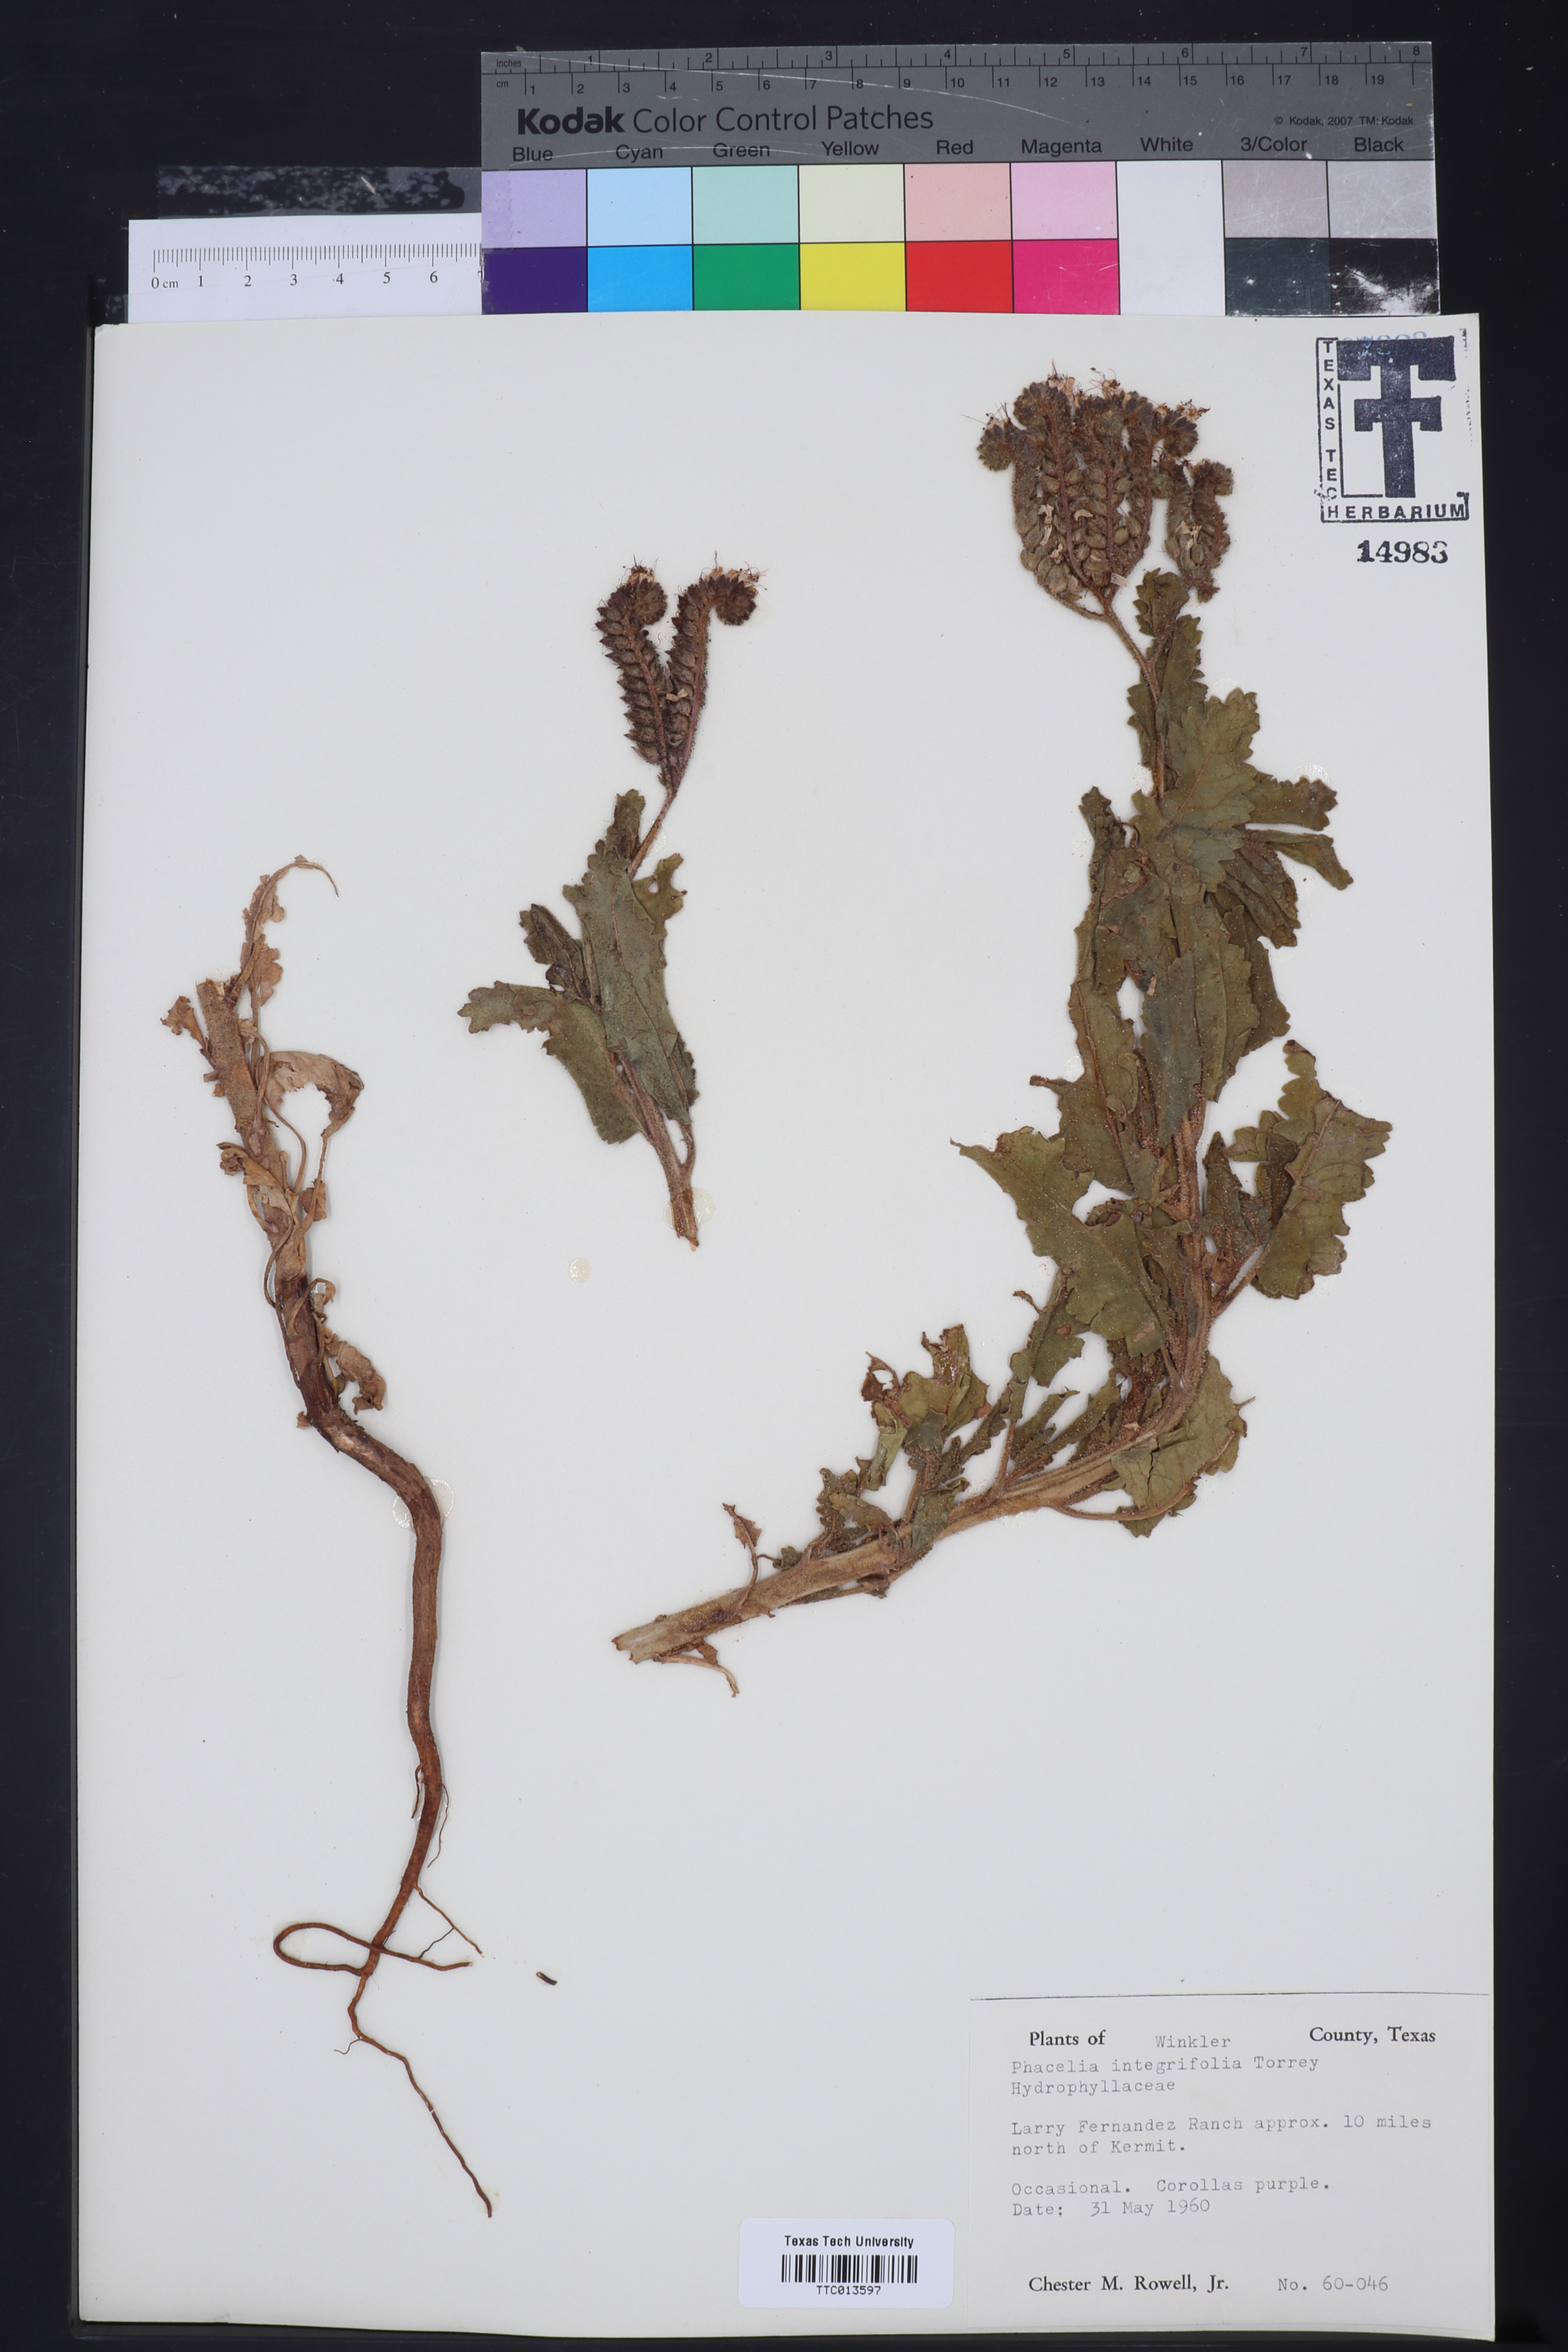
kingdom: Plantae
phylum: Tracheophyta
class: Magnoliopsida
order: Boraginales
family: Hydrophyllaceae
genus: Phacelia
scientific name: Phacelia integrifolia
